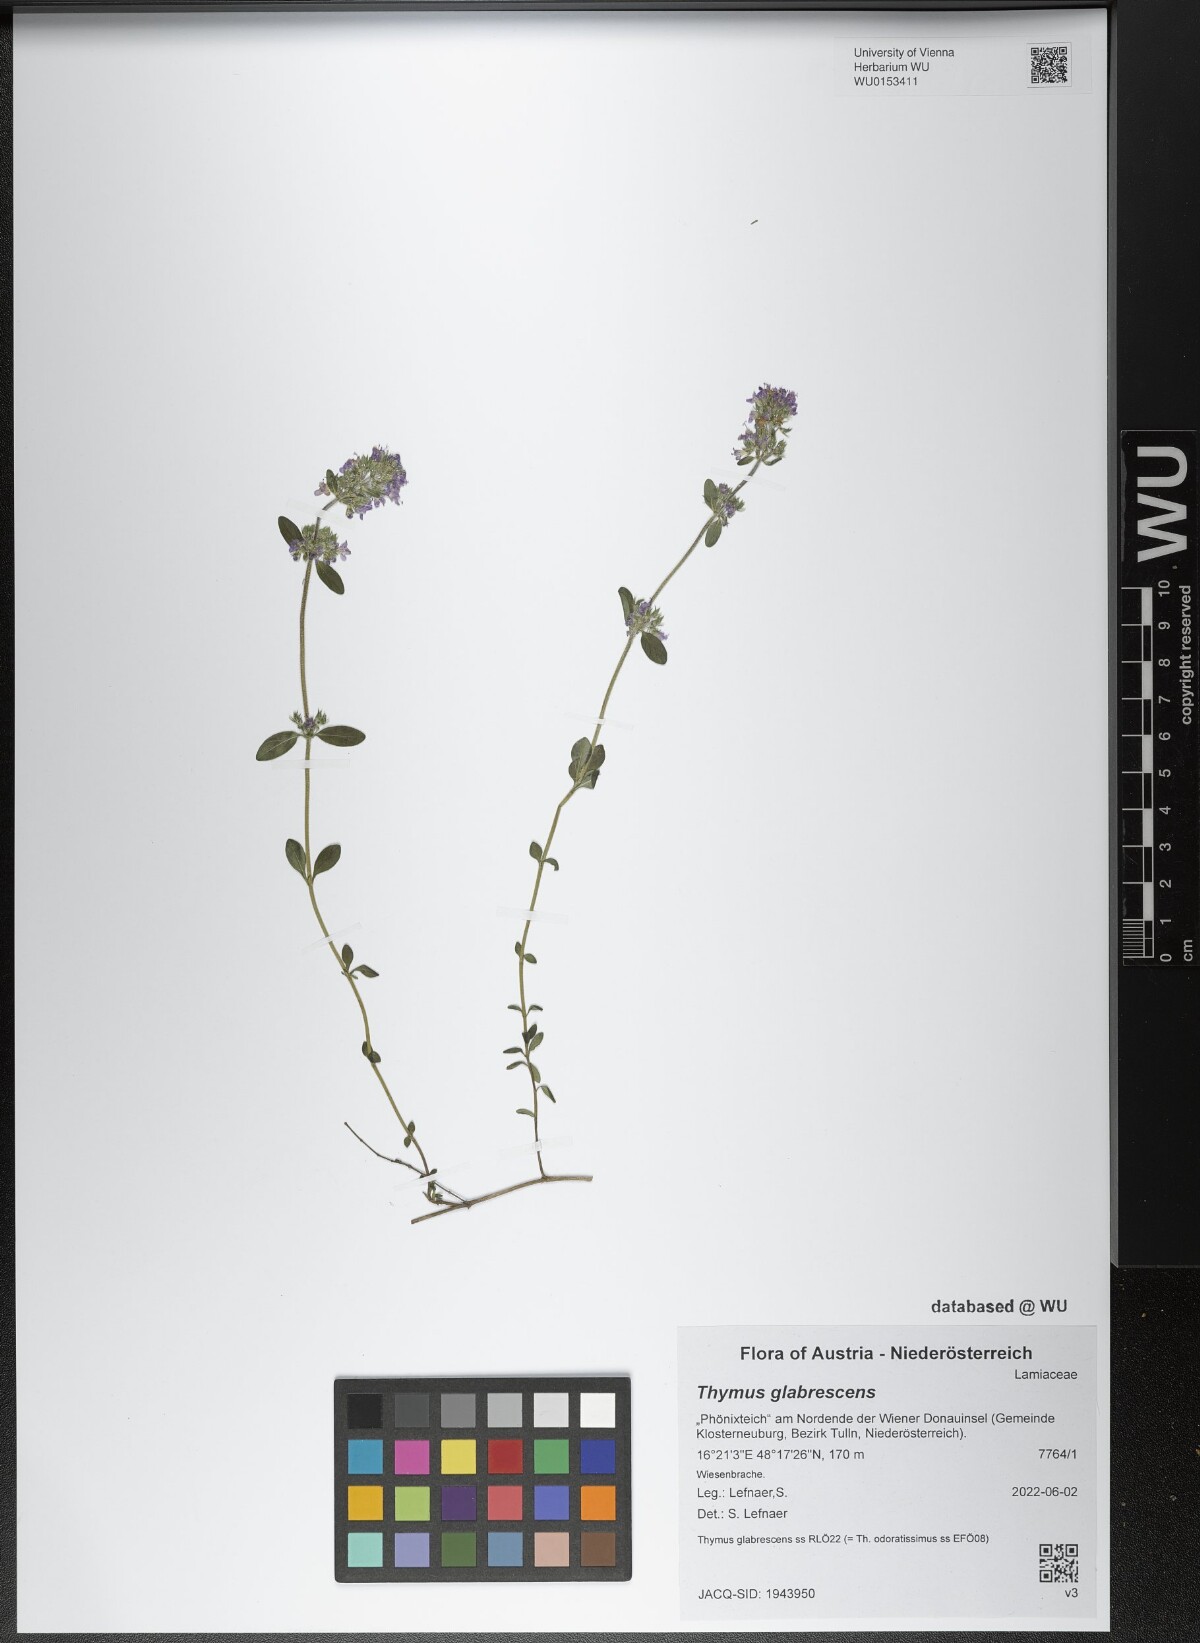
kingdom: Plantae
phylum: Tracheophyta
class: Magnoliopsida
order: Lamiales
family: Lamiaceae
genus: Thymus
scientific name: Thymus odoratissimus
